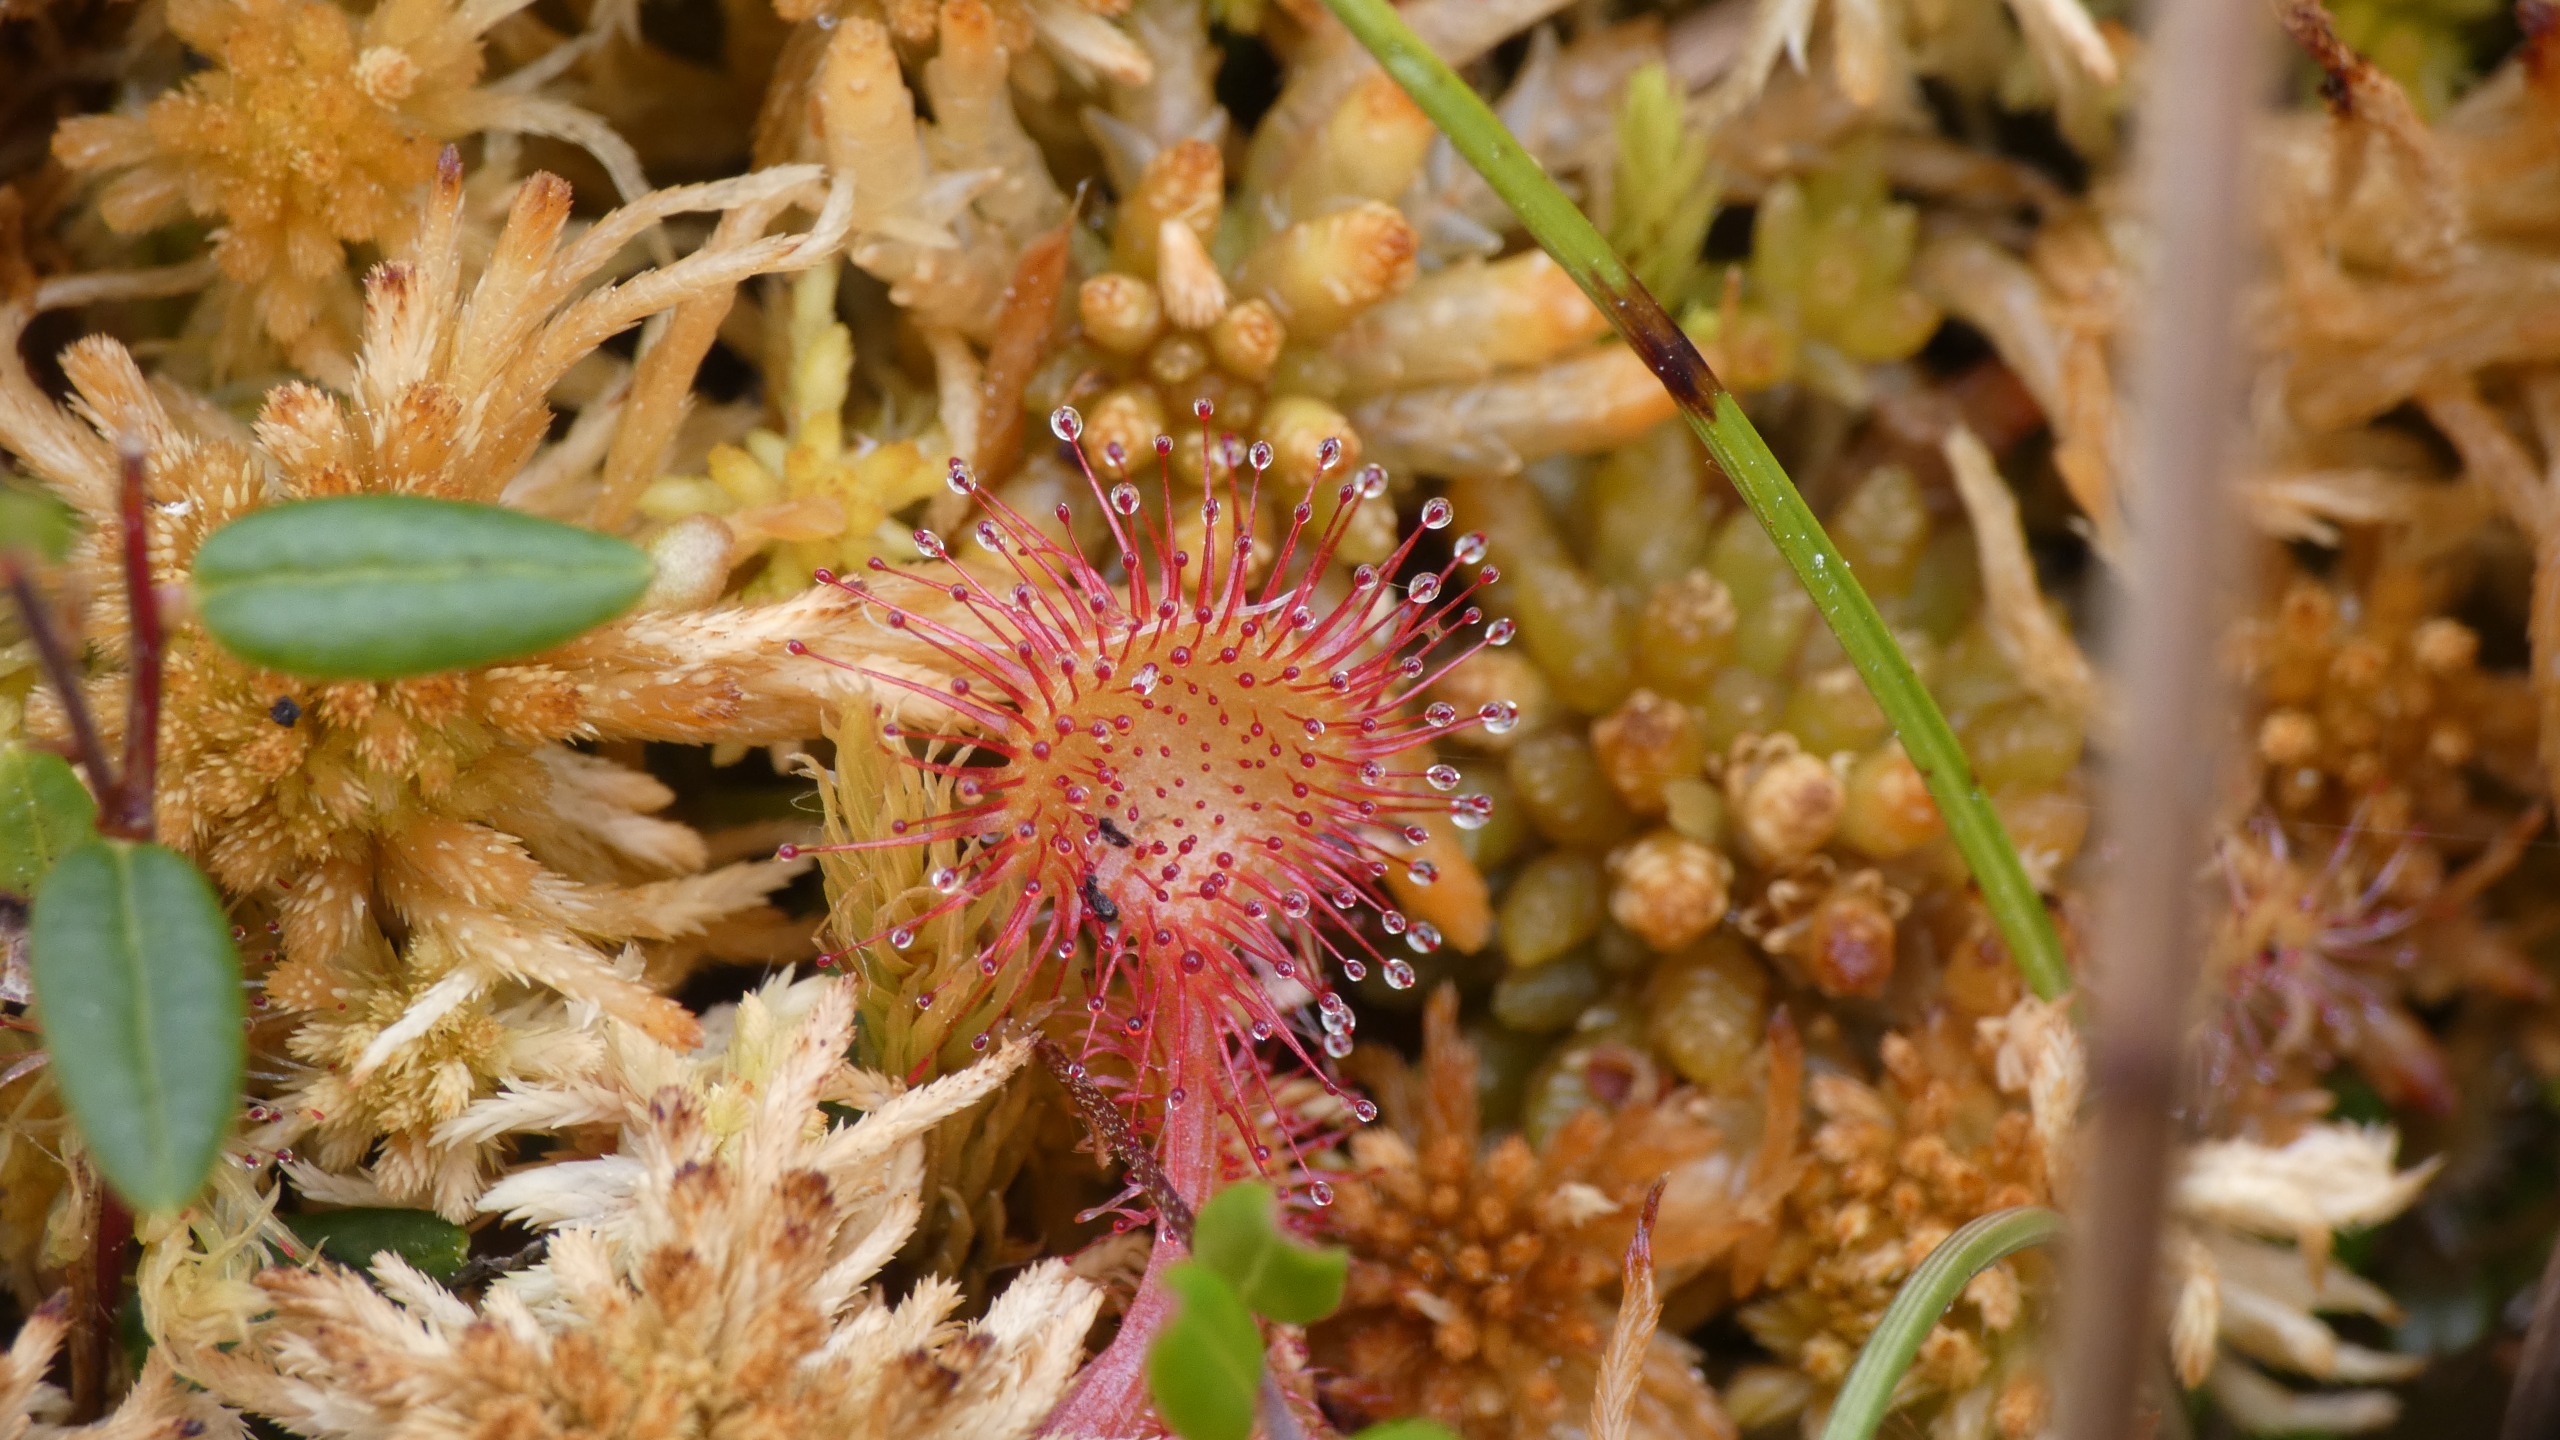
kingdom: Plantae
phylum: Tracheophyta
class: Magnoliopsida
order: Caryophyllales
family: Droseraceae
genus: Drosera
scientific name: Drosera rotundifolia
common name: Rundbladet soldug
